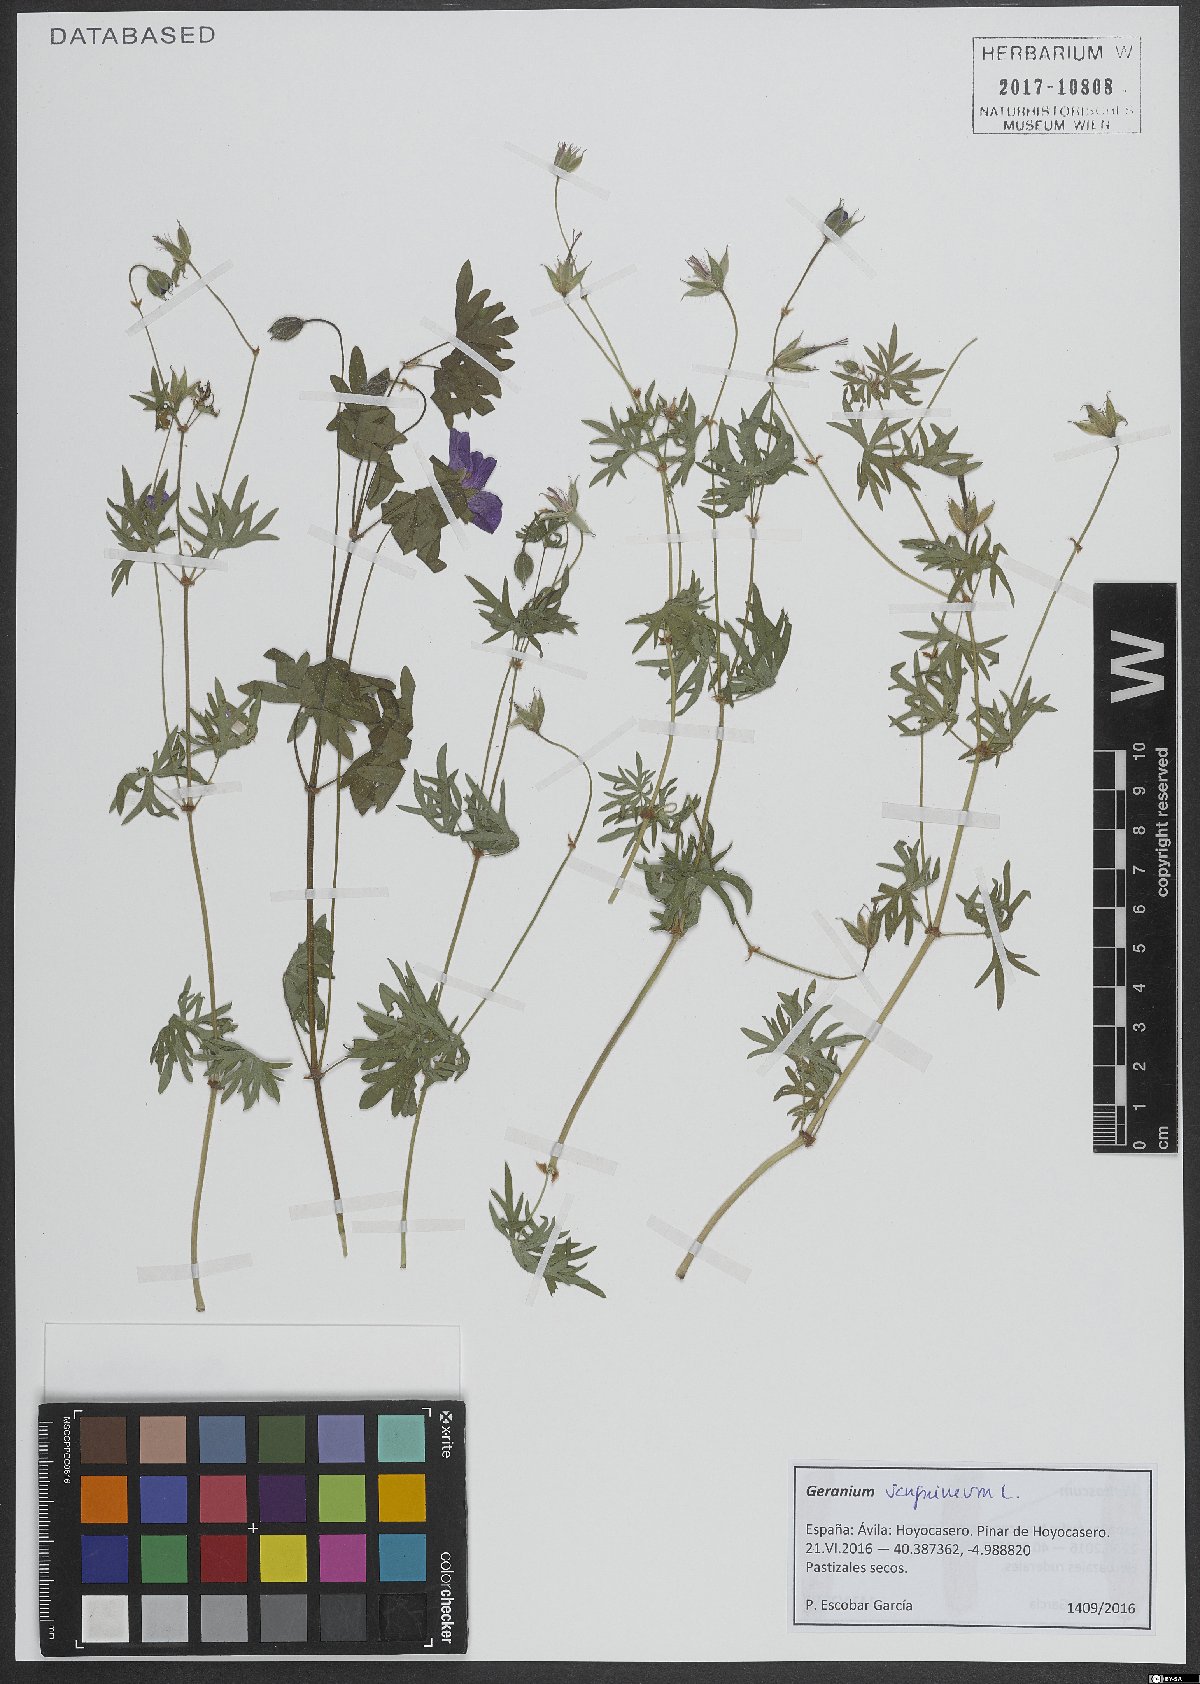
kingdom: Plantae
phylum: Tracheophyta
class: Magnoliopsida
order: Geraniales
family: Geraniaceae
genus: Geranium
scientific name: Geranium sanguineum
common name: Bloody crane's-bill
